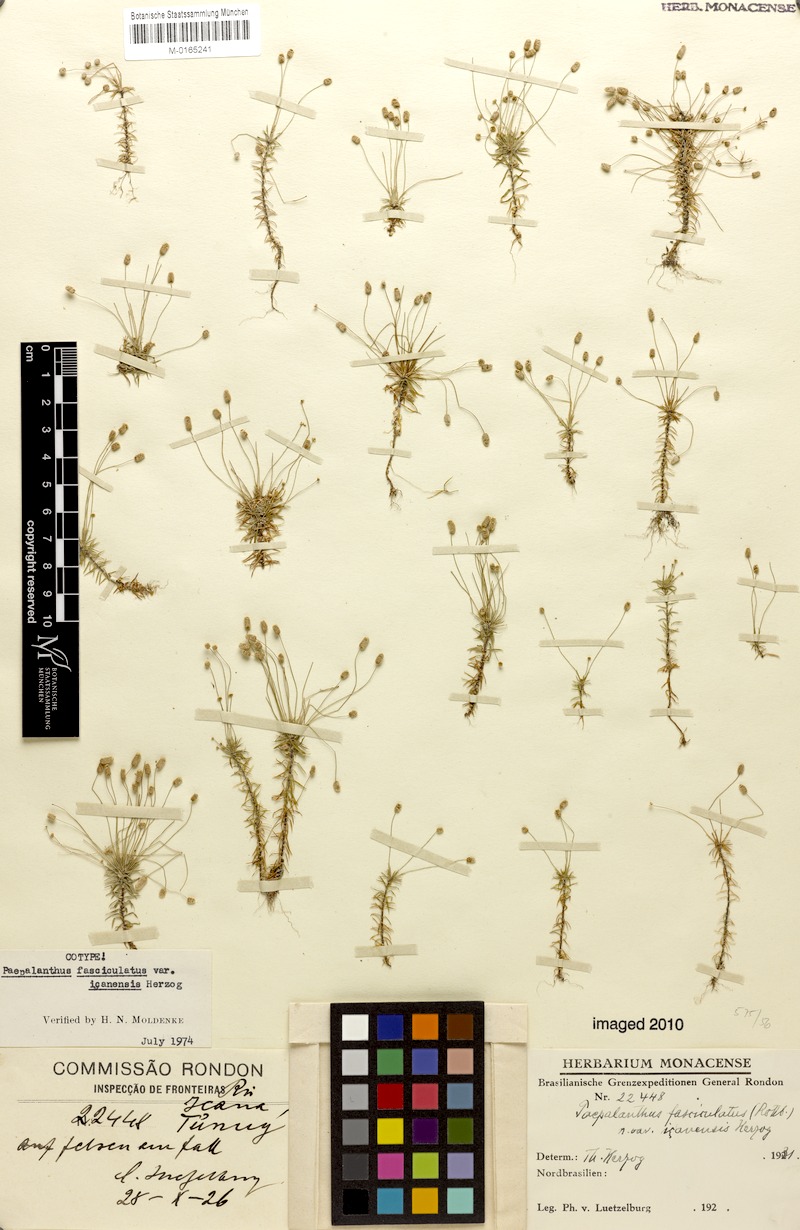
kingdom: Plantae
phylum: Tracheophyta
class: Liliopsida
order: Poales
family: Eriocaulaceae
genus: Paepalanthus
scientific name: Paepalanthus fasciculatus
